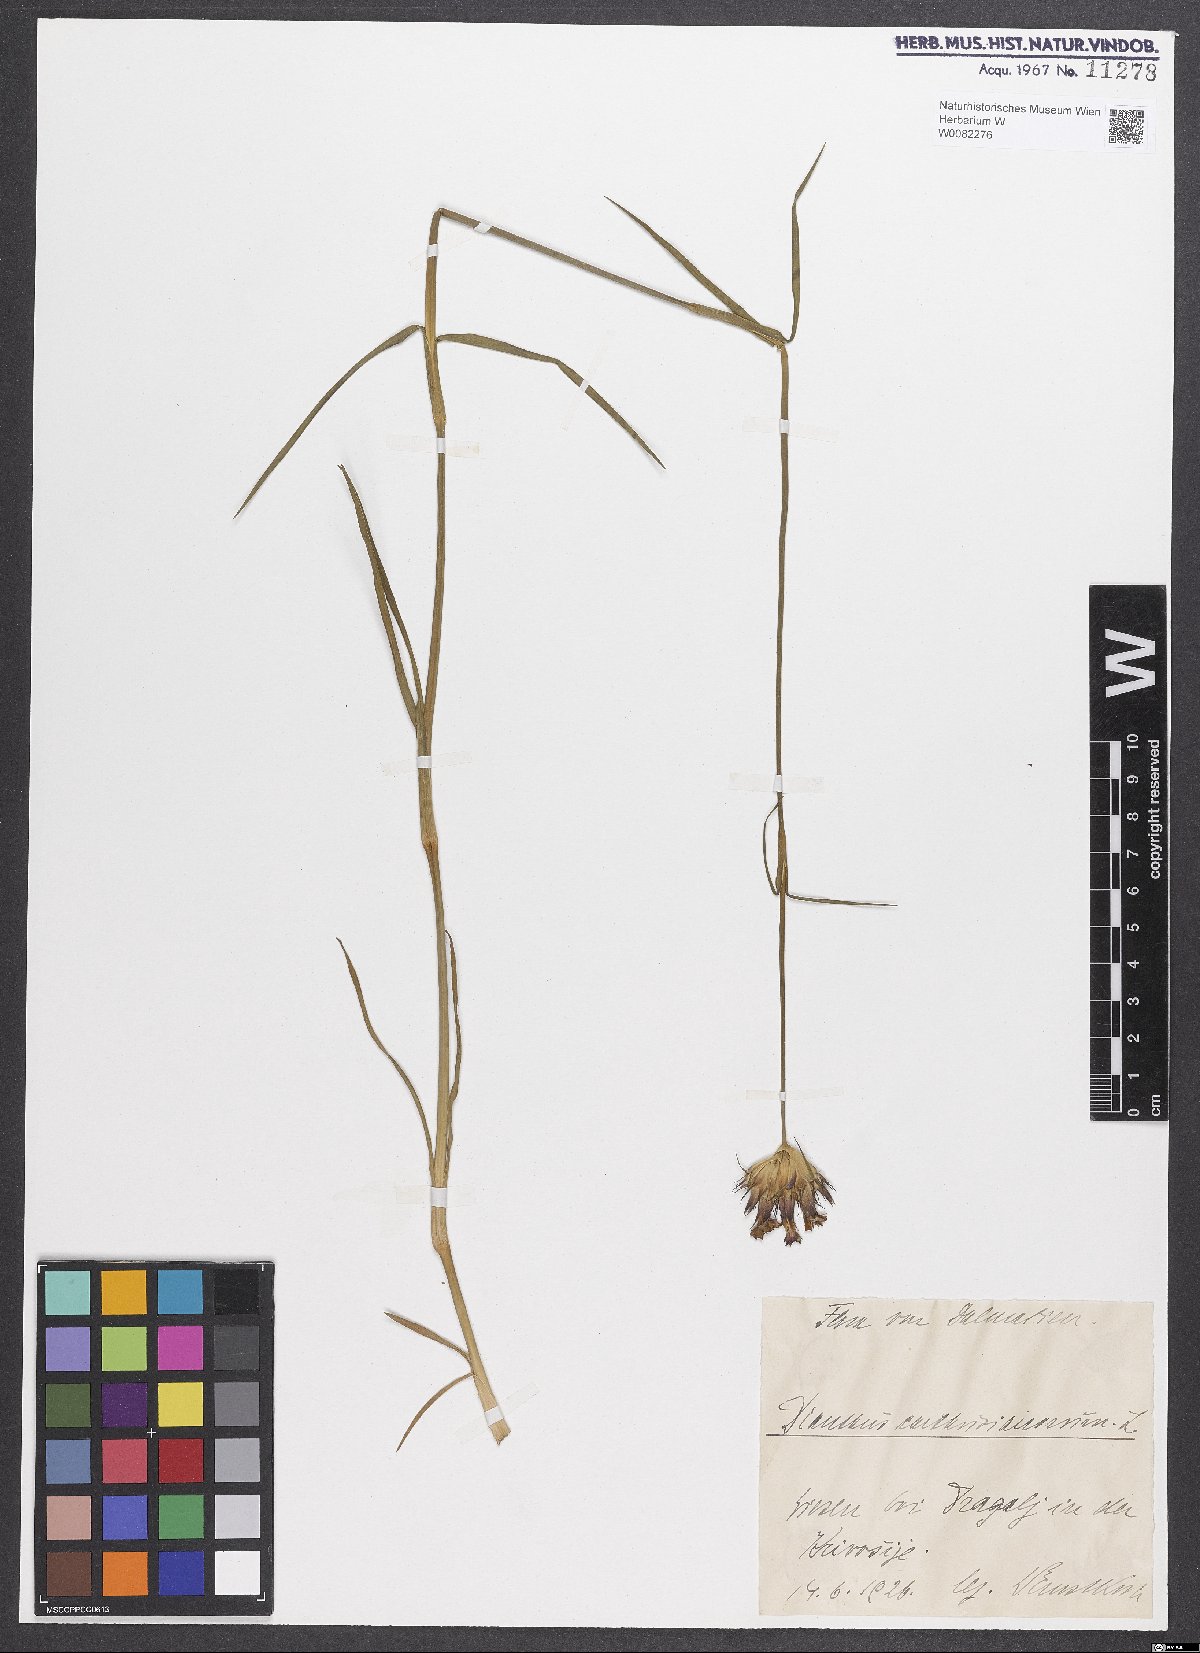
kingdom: Plantae
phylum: Tracheophyta
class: Magnoliopsida
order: Caryophyllales
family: Caryophyllaceae
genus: Dianthus
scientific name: Dianthus carthusianorum
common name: Carthusian pink
